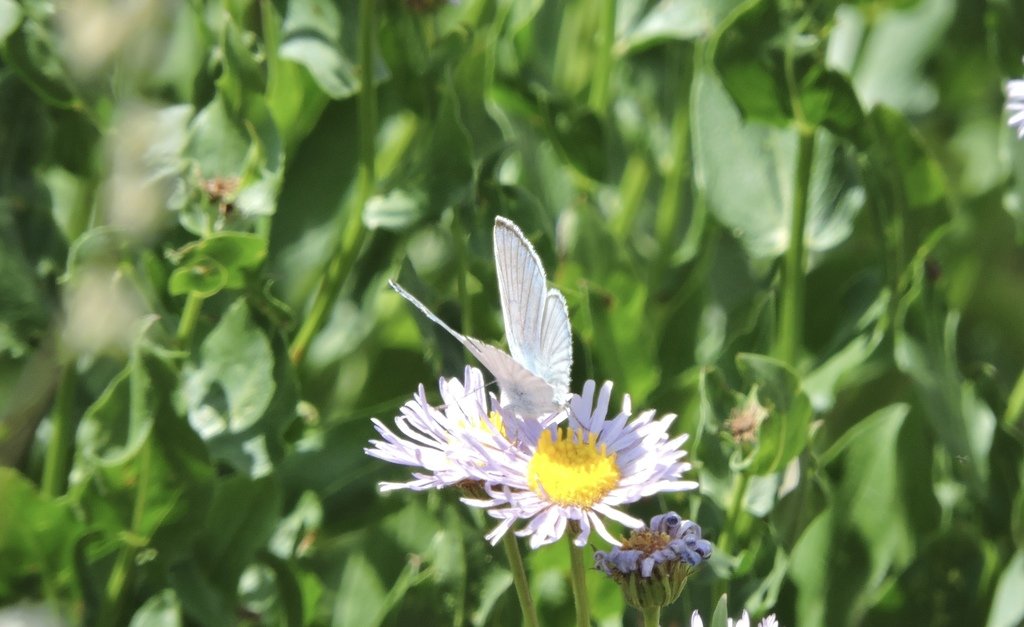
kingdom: Animalia
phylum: Arthropoda
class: Insecta
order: Lepidoptera
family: Lycaenidae
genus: Lycaena
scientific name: Lycaena heteronea
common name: Blue Copper
